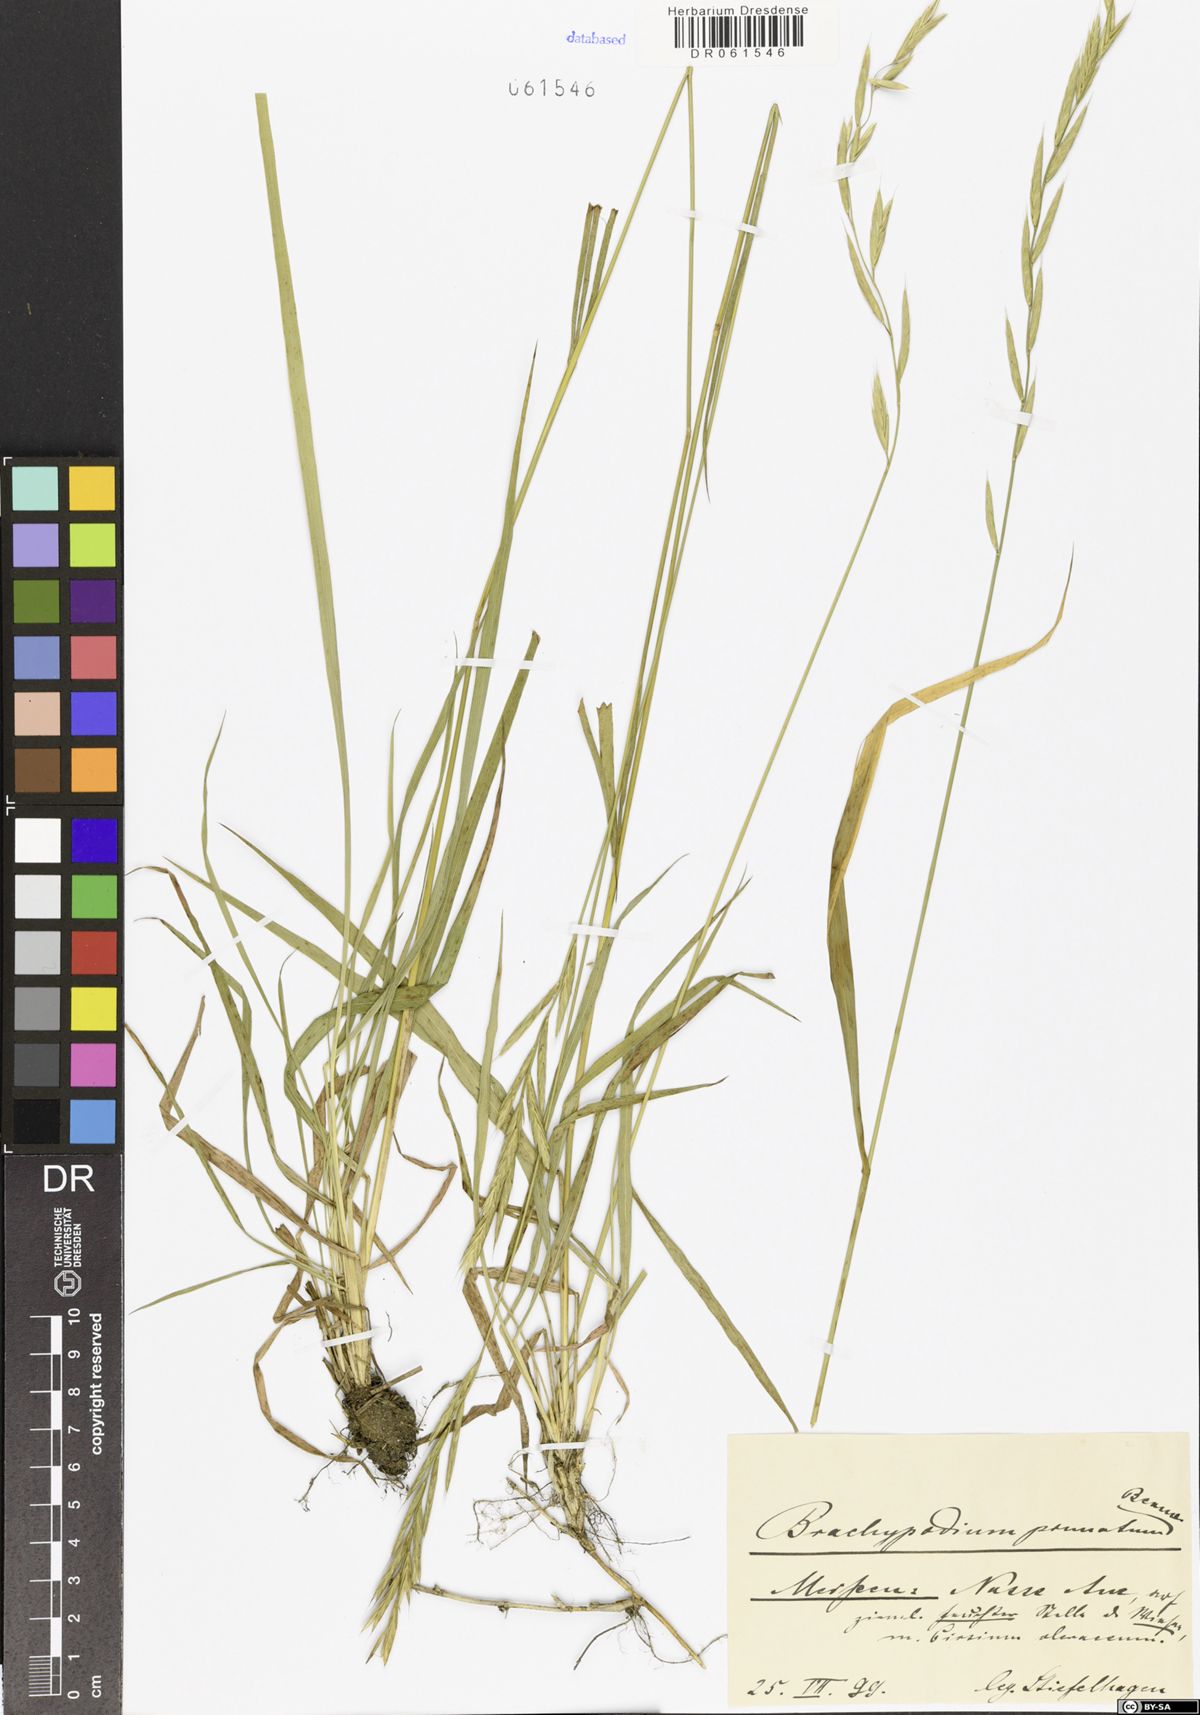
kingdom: Plantae
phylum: Tracheophyta
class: Liliopsida
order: Poales
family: Poaceae
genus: Brachypodium
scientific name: Brachypodium pinnatum
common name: Tor grass
